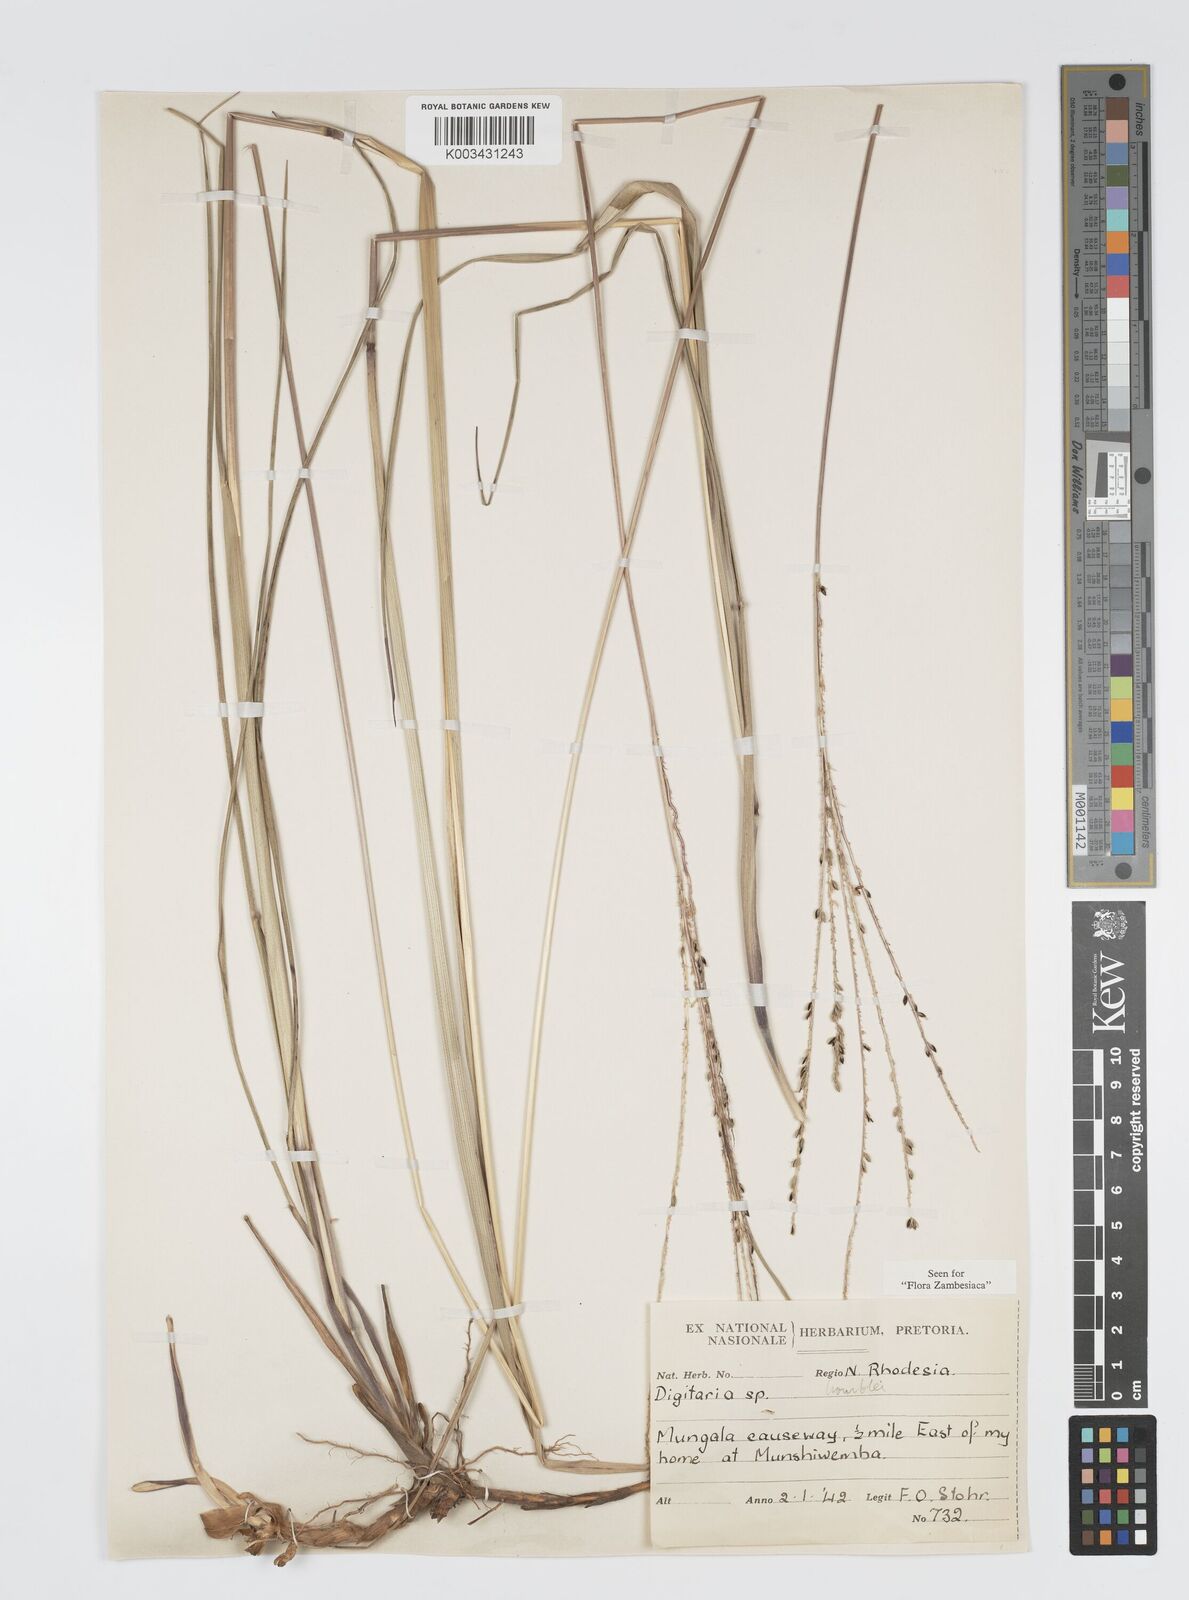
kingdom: Plantae
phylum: Tracheophyta
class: Liliopsida
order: Poales
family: Poaceae
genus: Digitaria
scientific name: Digitaria hyalina
